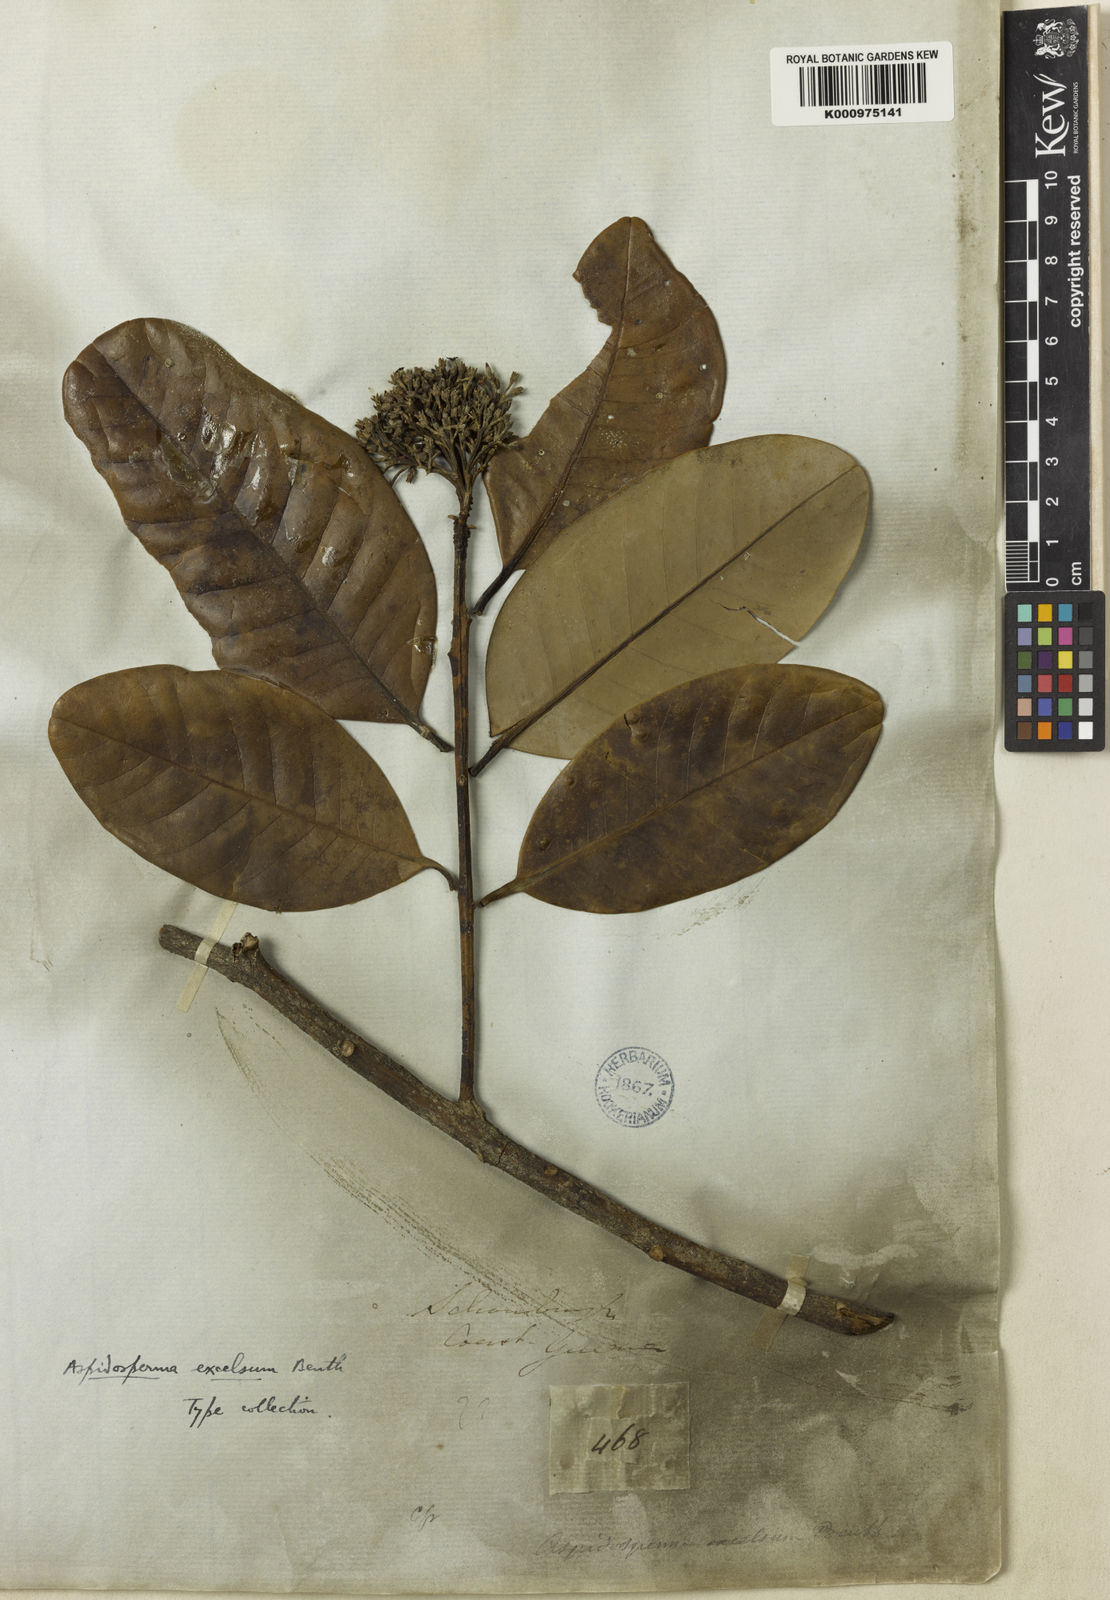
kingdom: Plantae
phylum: Tracheophyta
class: Magnoliopsida
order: Gentianales
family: Apocynaceae
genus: Aspidosperma
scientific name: Aspidosperma excelsum
